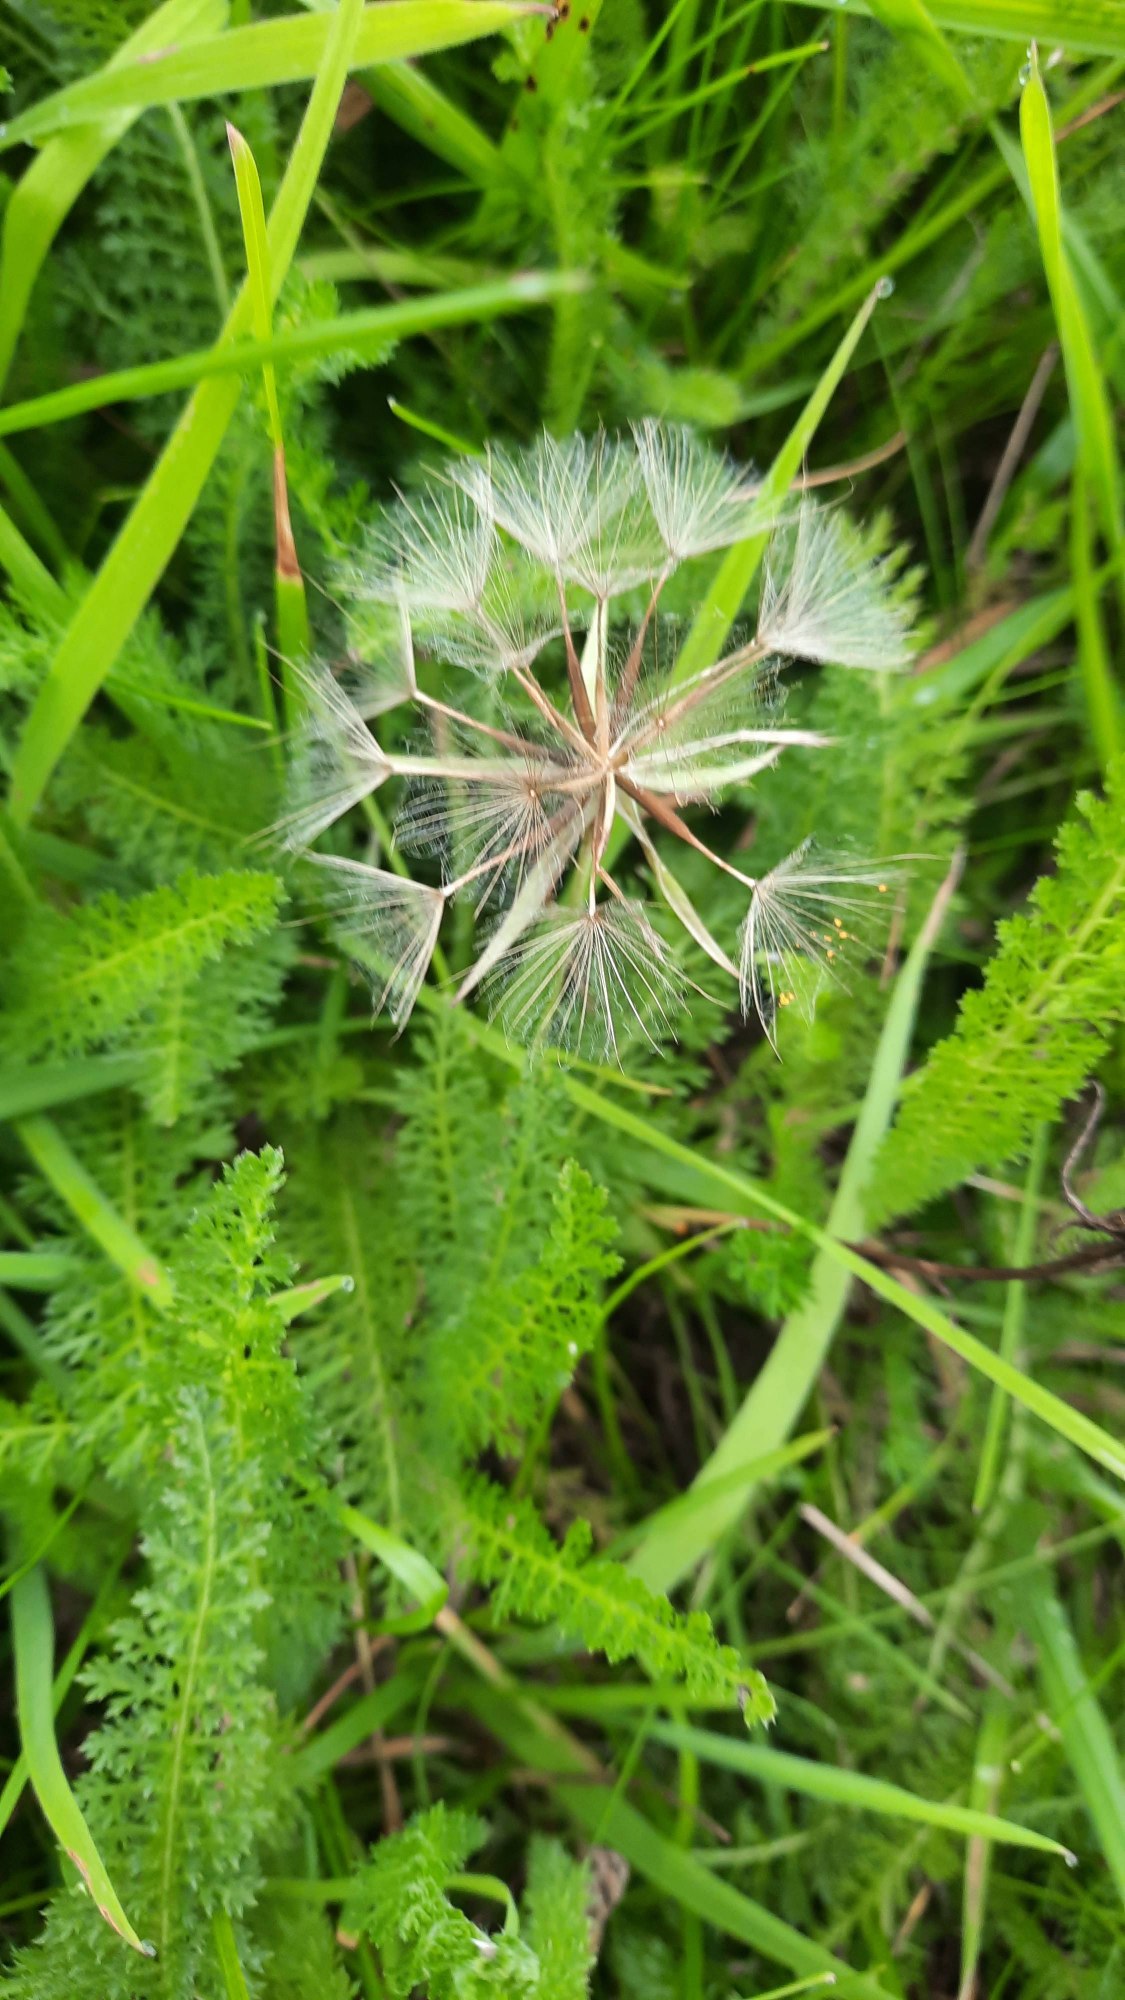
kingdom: Plantae
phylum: Tracheophyta
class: Magnoliopsida
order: Asterales
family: Asteraceae
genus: Tragopogon
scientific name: Tragopogon pratensis
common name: Gedeskæg
